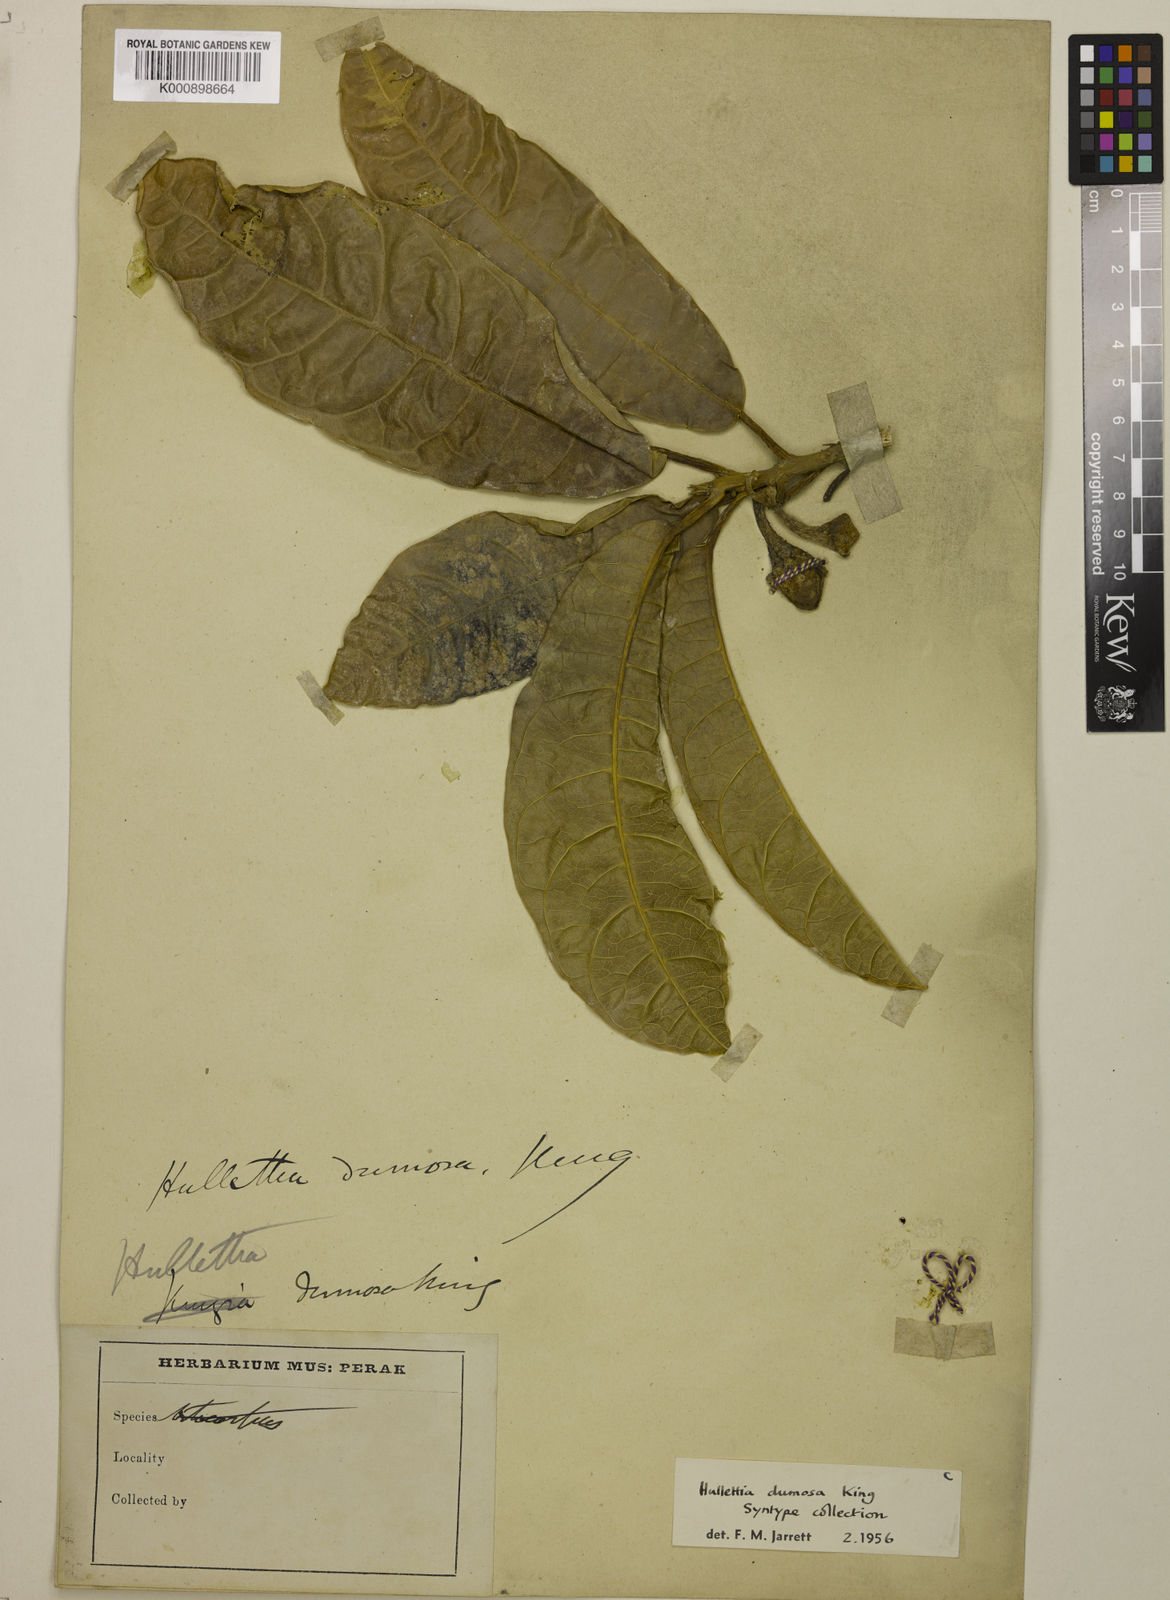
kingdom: Plantae
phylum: Tracheophyta
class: Magnoliopsida
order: Rosales
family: Moraceae
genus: Hullettia
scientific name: Hullettia
